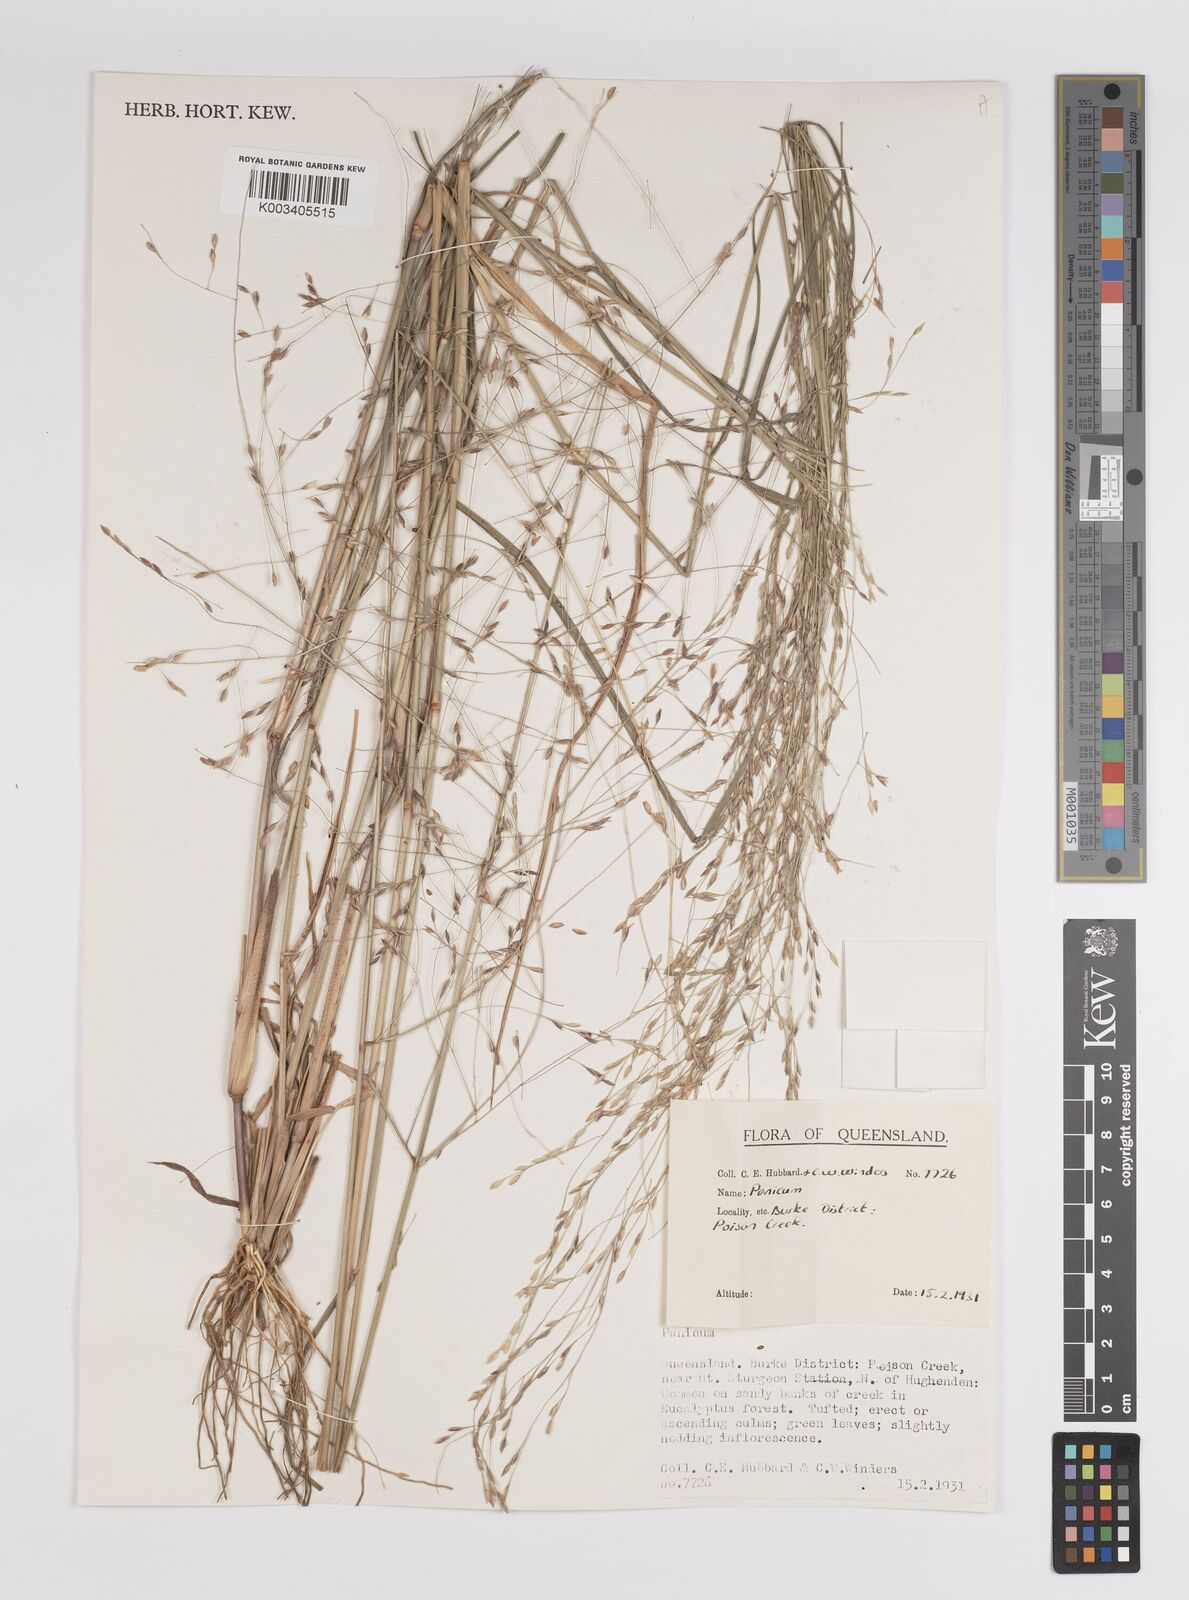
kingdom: Plantae
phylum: Tracheophyta
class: Liliopsida
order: Poales
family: Poaceae
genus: Panicum
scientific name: Panicum
